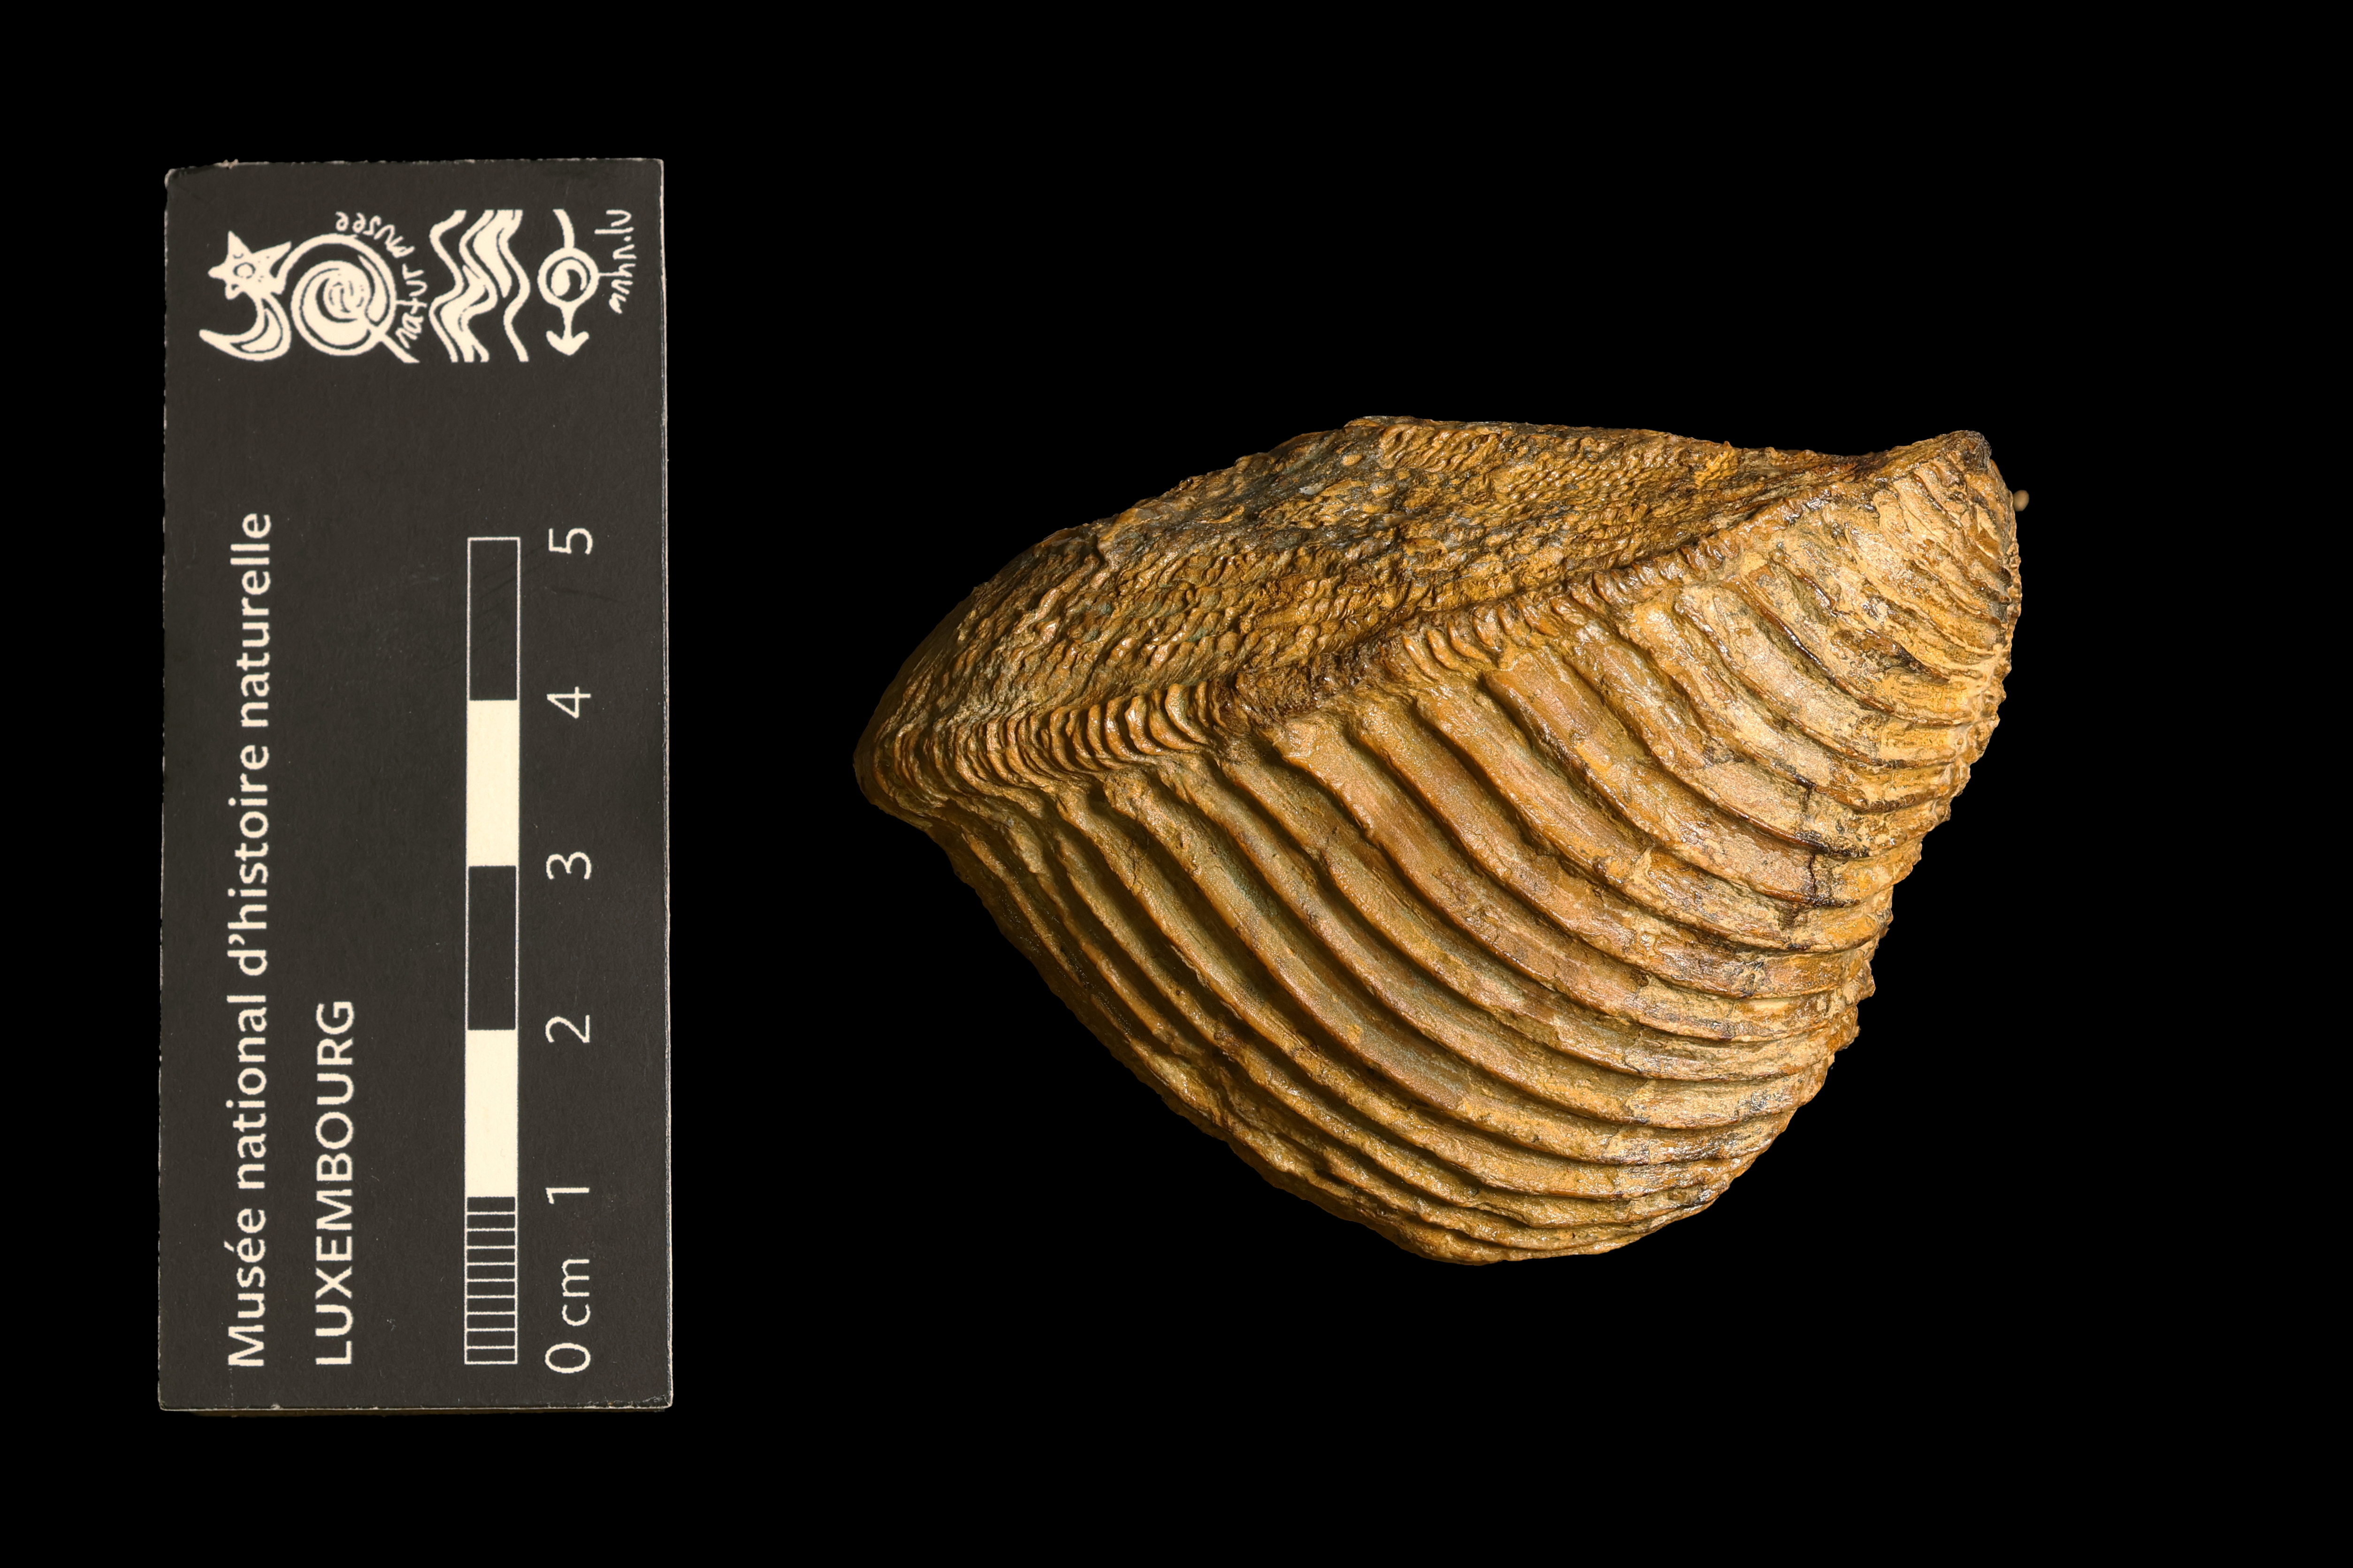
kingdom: Animalia
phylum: Mollusca
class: Bivalvia
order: Trigoniida
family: Trigoniidae
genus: Trigonia
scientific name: Trigonia costata
